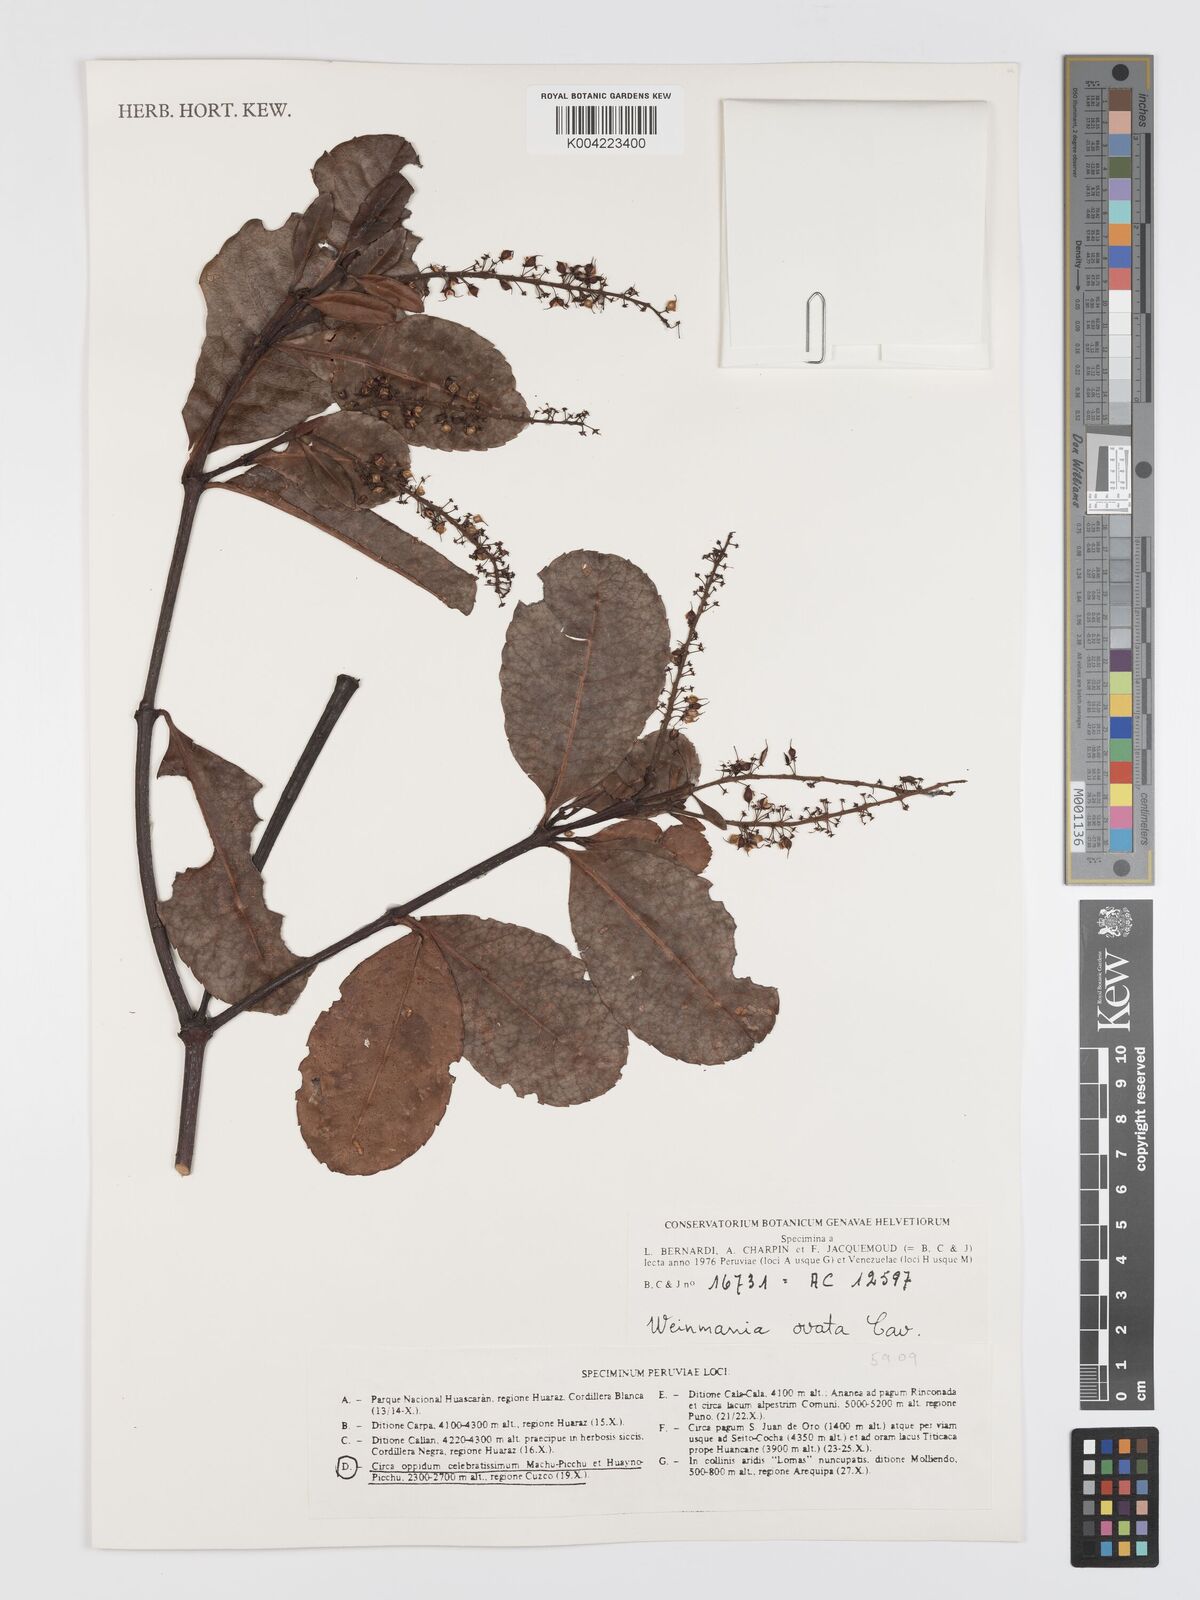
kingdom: Plantae
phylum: Tracheophyta
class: Magnoliopsida
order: Oxalidales
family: Cunoniaceae
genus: Weinmannia
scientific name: Weinmannia ovata
